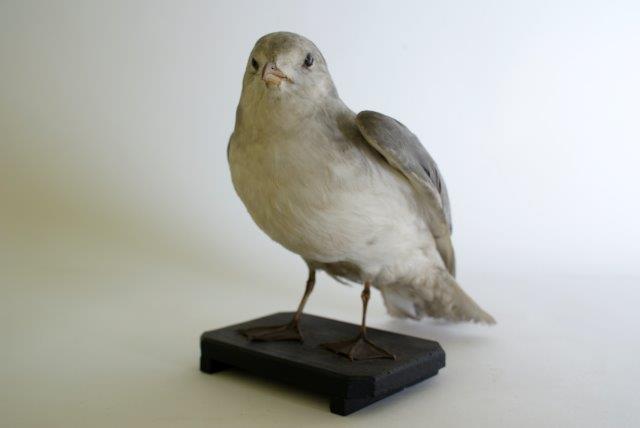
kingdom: Animalia
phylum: Chordata
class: Aves
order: Charadriiformes
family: Laridae
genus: Rissa
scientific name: Rissa tridactyla
